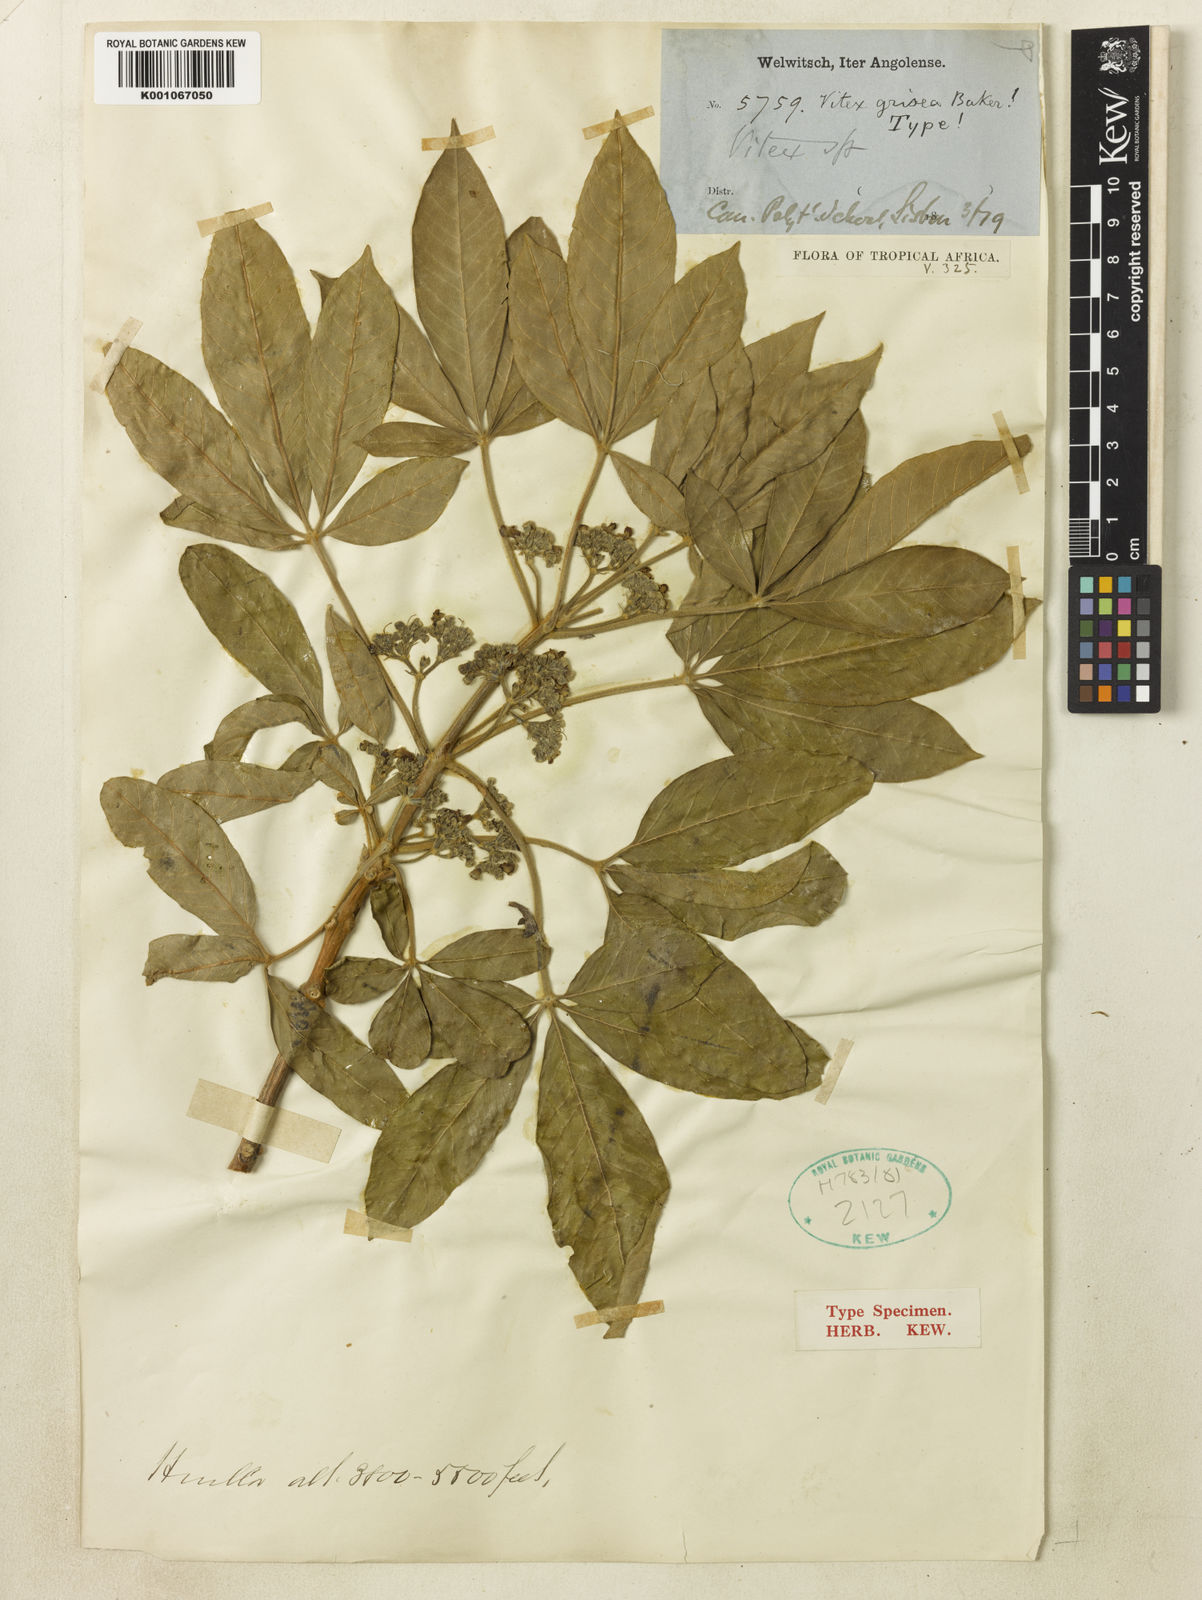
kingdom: Plantae
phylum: Tracheophyta
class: Magnoliopsida
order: Lamiales
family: Lamiaceae
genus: Vitex
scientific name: Vitex madiensis
